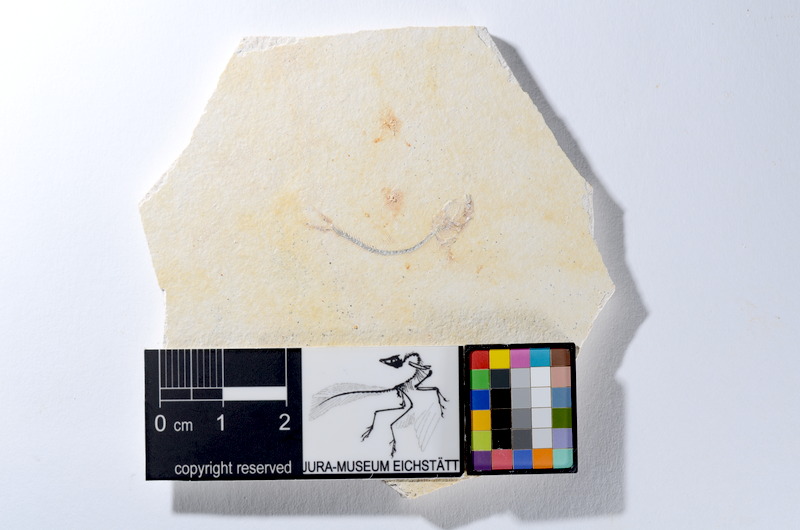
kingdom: Animalia
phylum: Chordata
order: Salmoniformes
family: Orthogonikleithridae
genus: Orthogonikleithrus
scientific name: Orthogonikleithrus hoelli
